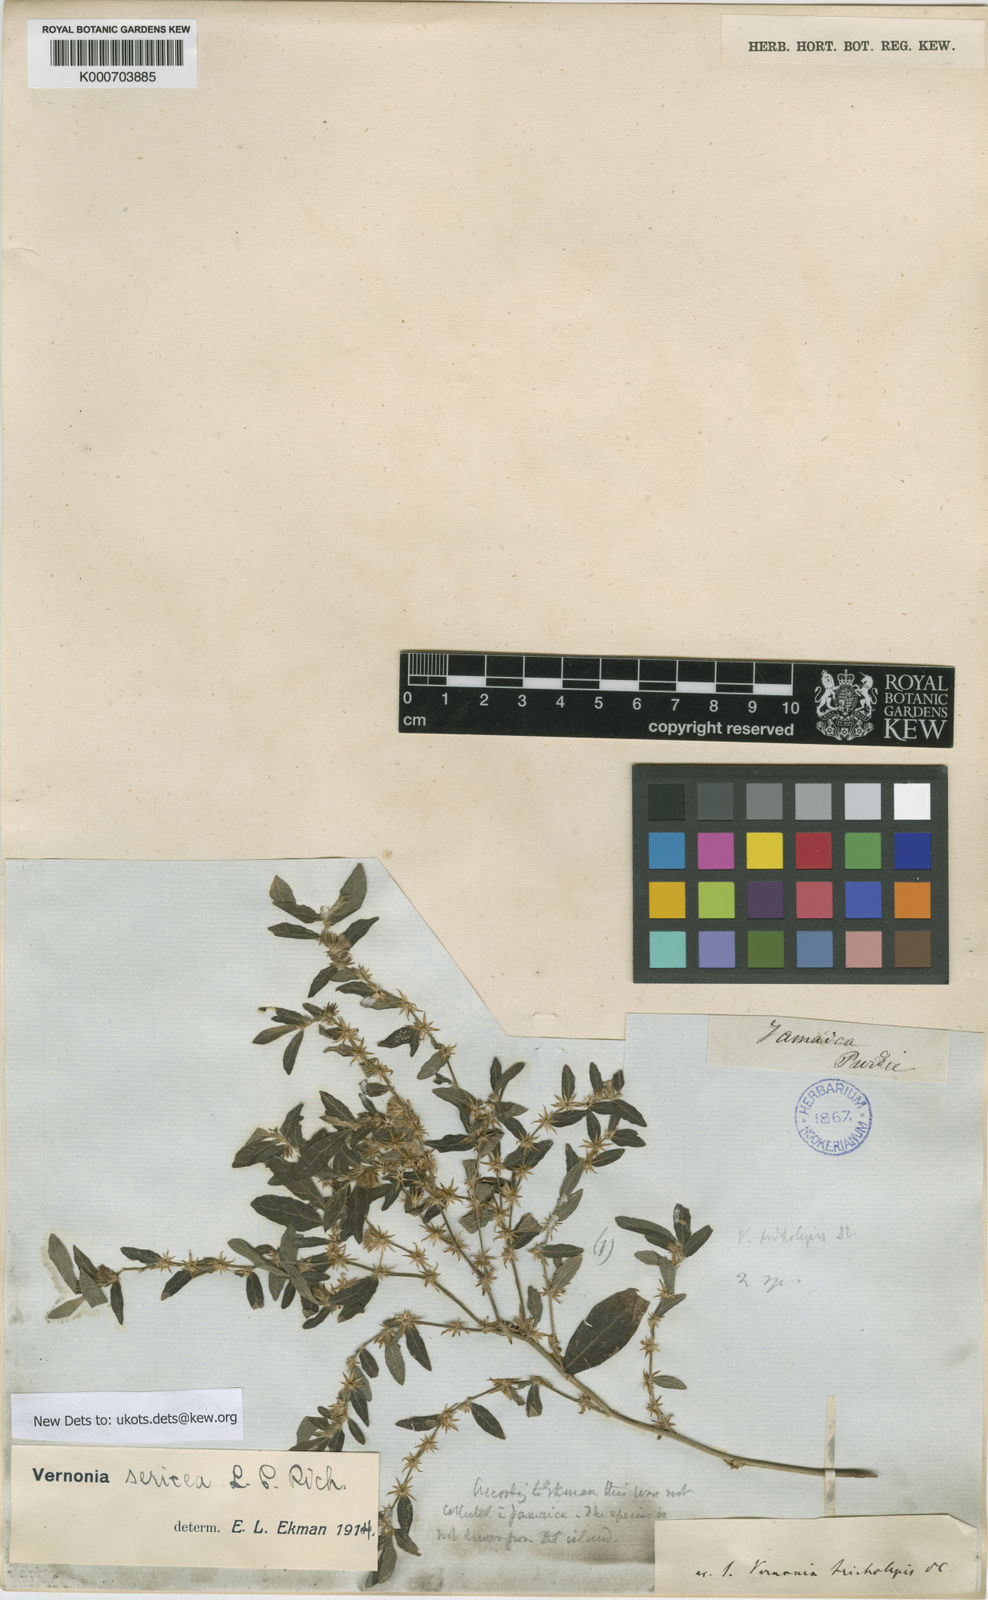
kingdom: Plantae
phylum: Tracheophyta
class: Magnoliopsida
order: Asterales
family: Asteraceae
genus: Lepidaploa
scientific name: Lepidaploa sericea
